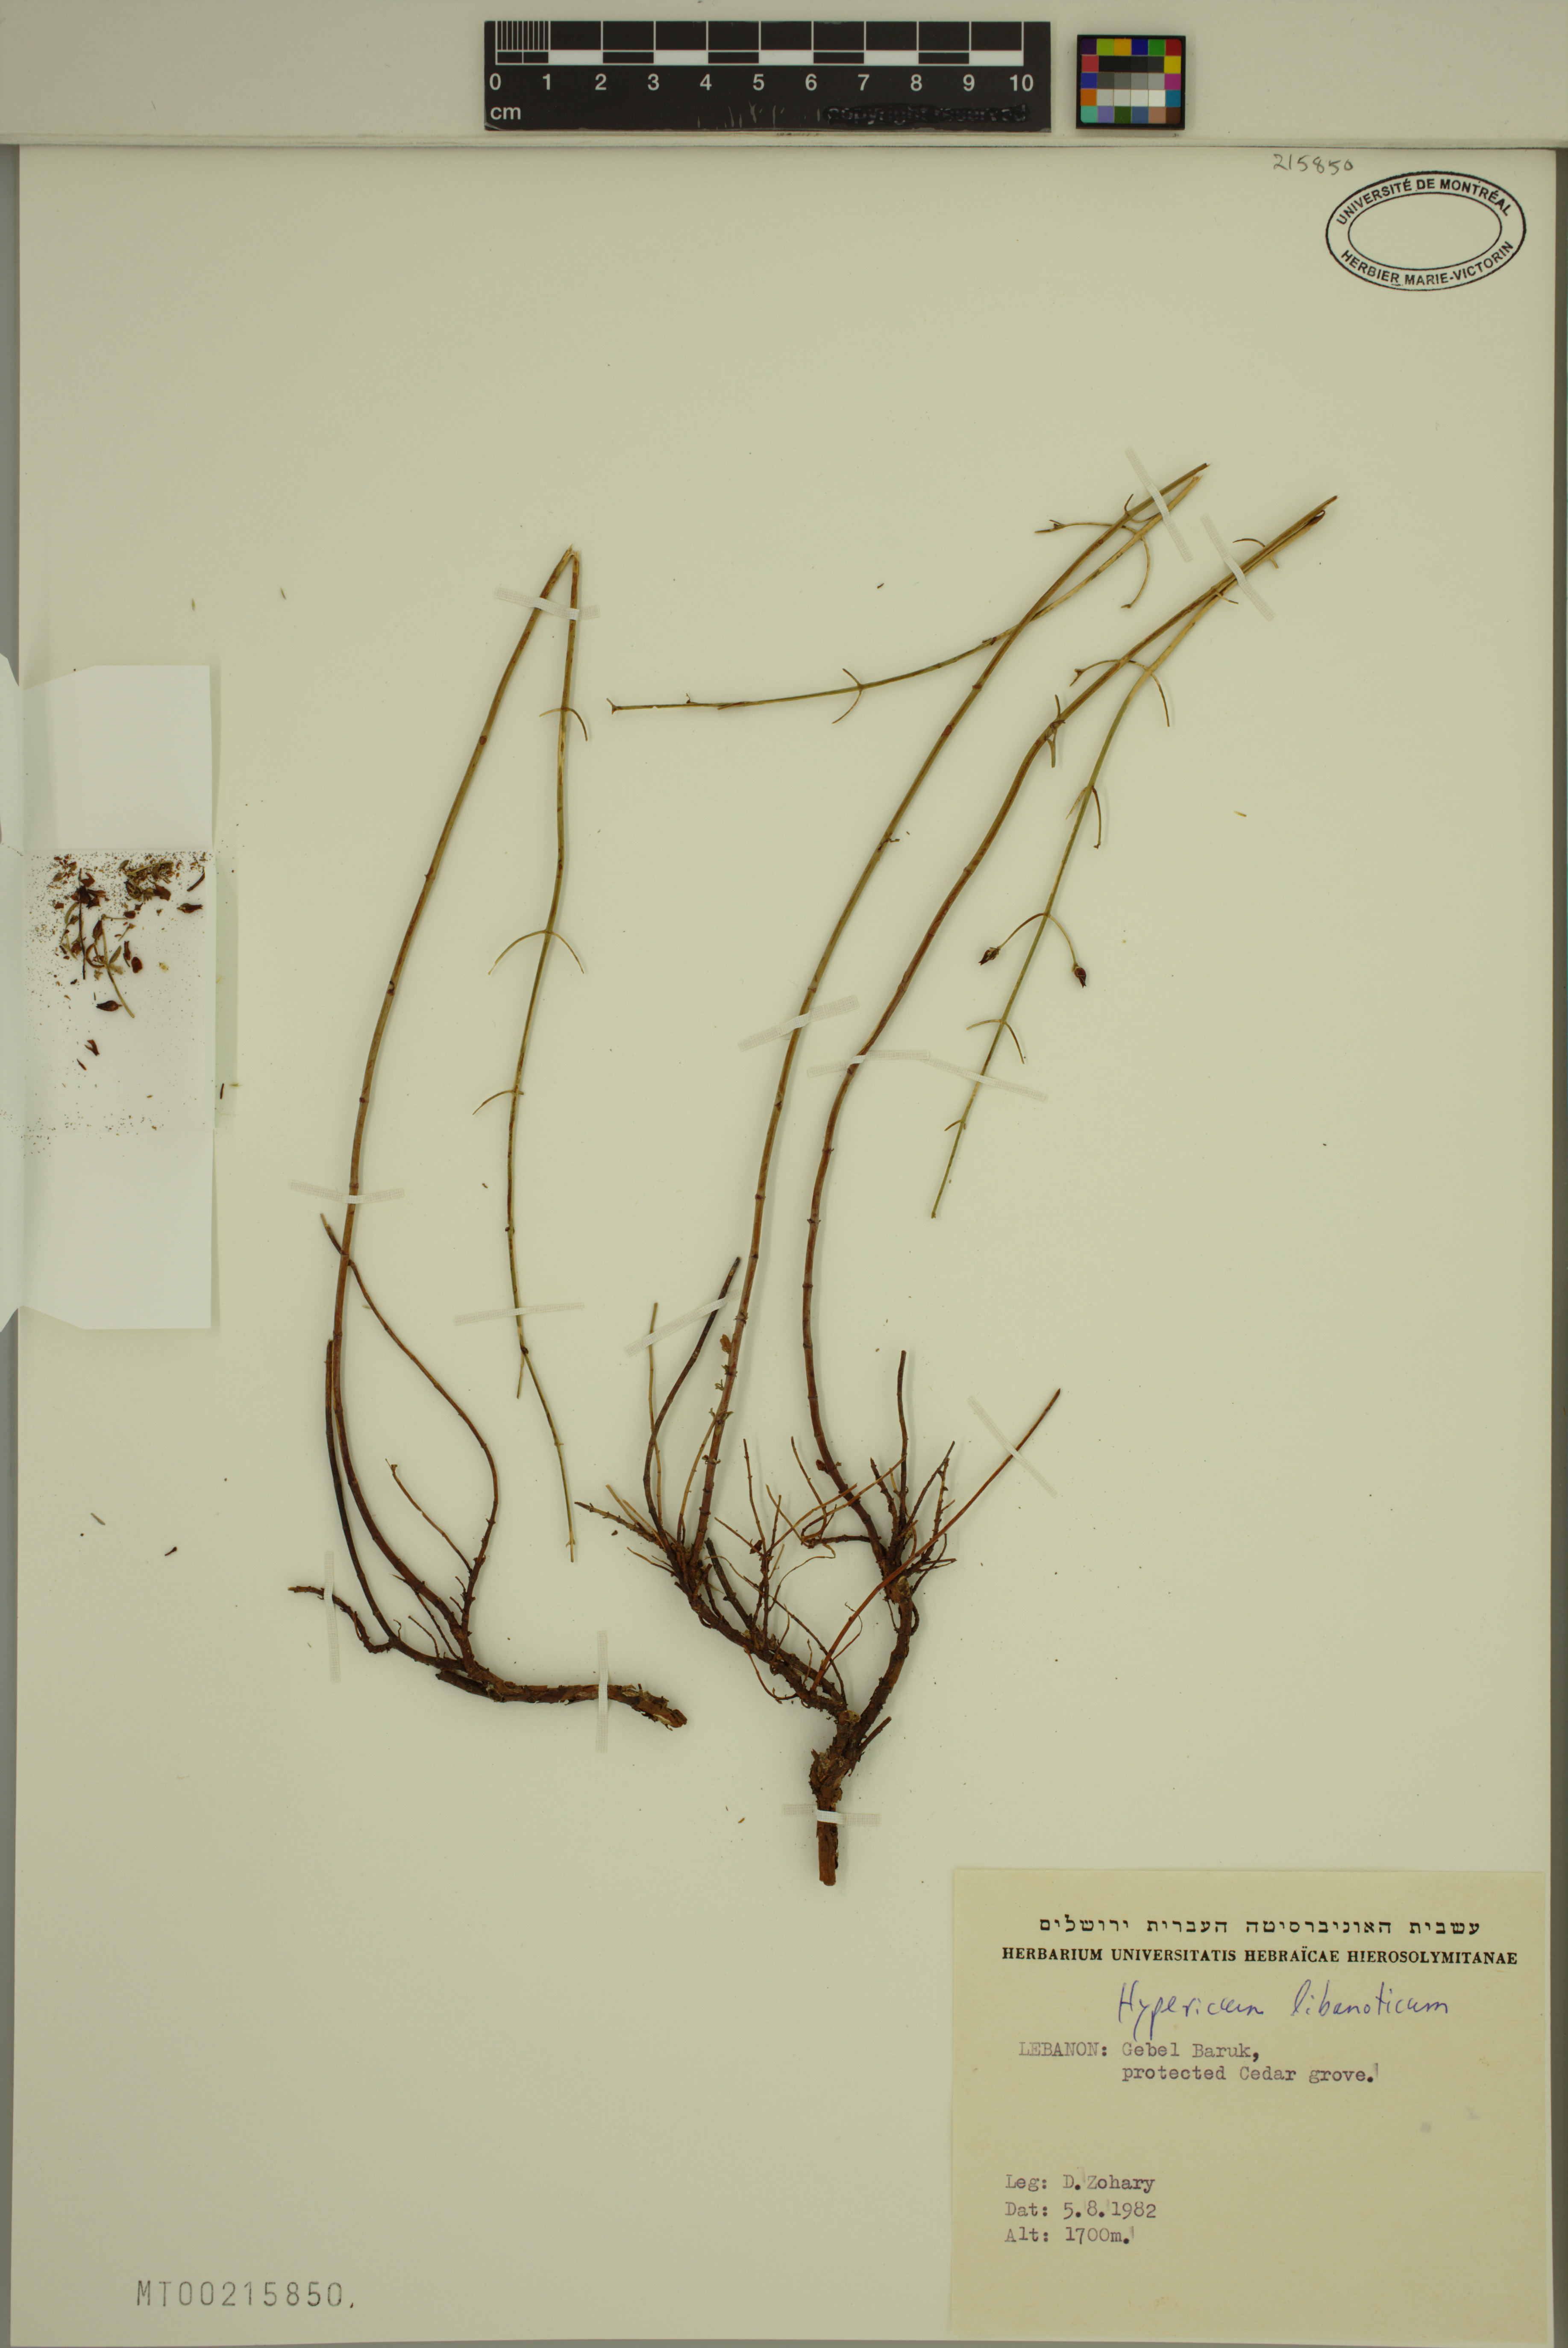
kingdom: Plantae
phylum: Tracheophyta
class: Magnoliopsida
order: Malpighiales
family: Hypericaceae
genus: Hypericum
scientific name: Hypericum libanoticum
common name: Lebanon saint john’s wort
